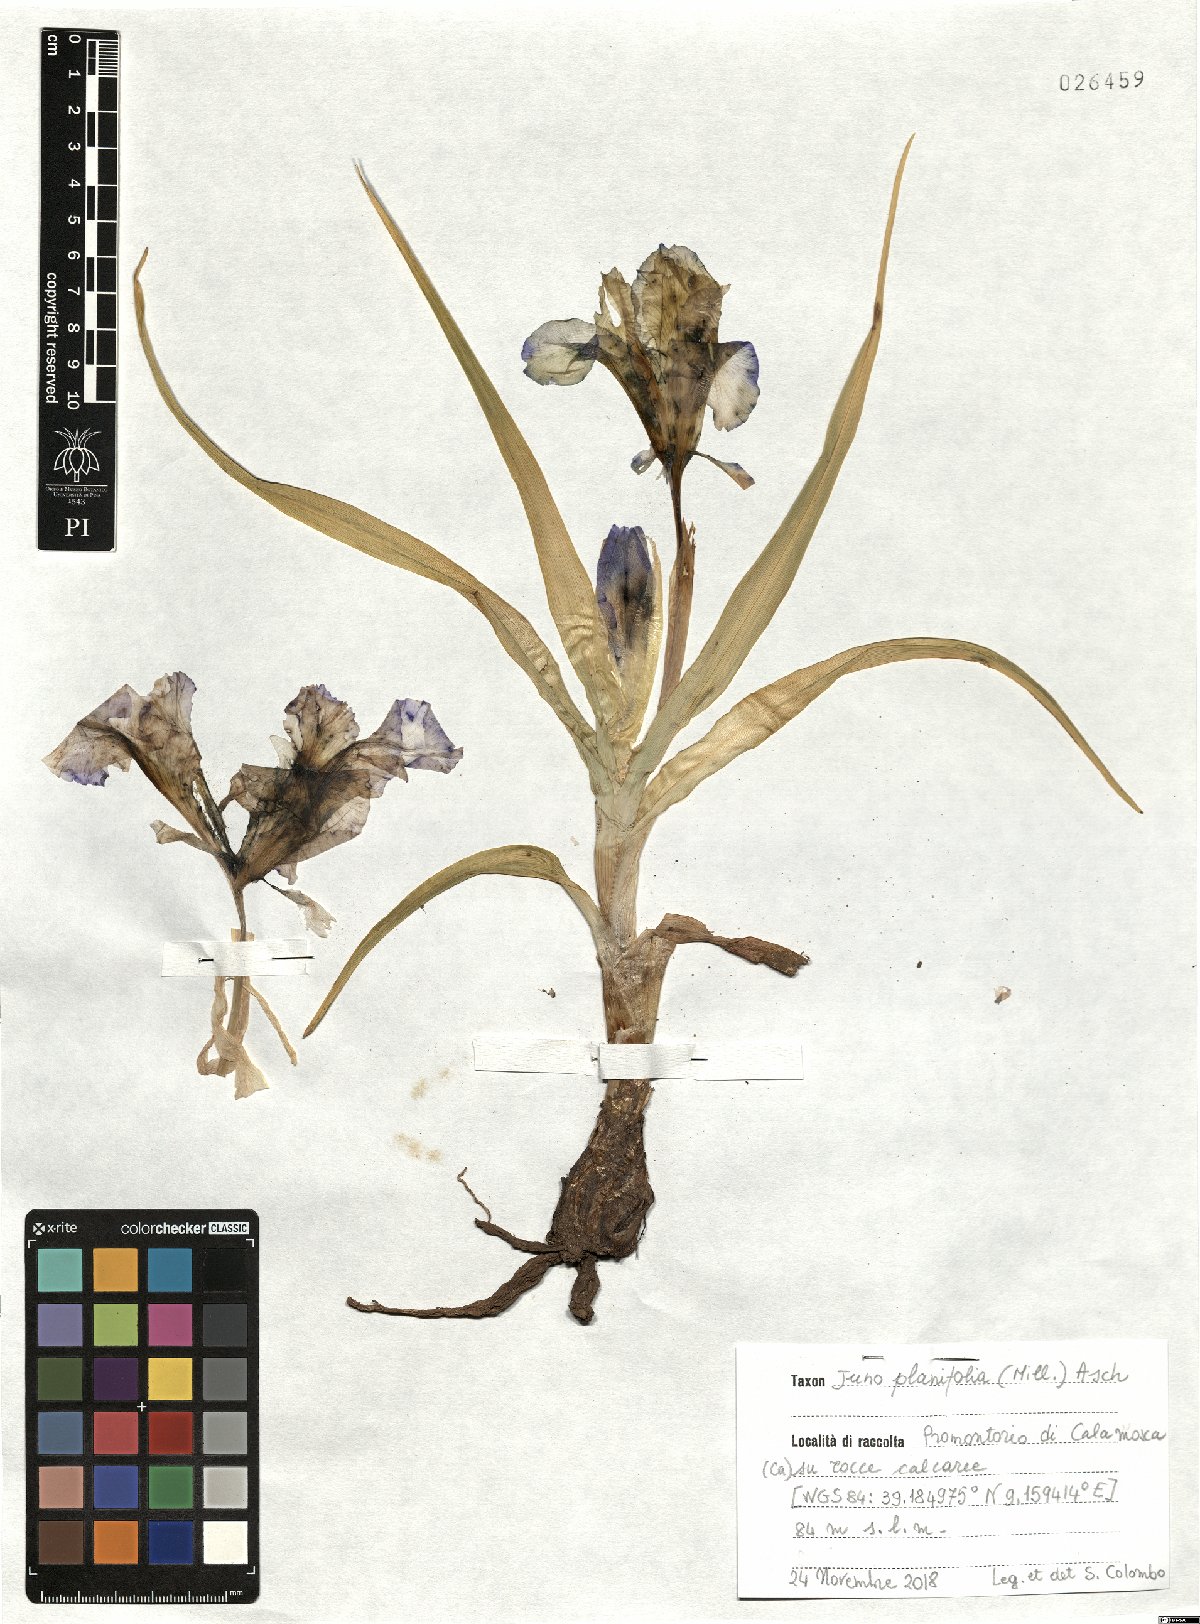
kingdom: Plantae
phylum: Tracheophyta
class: Liliopsida
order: Asparagales
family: Iridaceae
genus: Iris
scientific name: Iris planifolia
